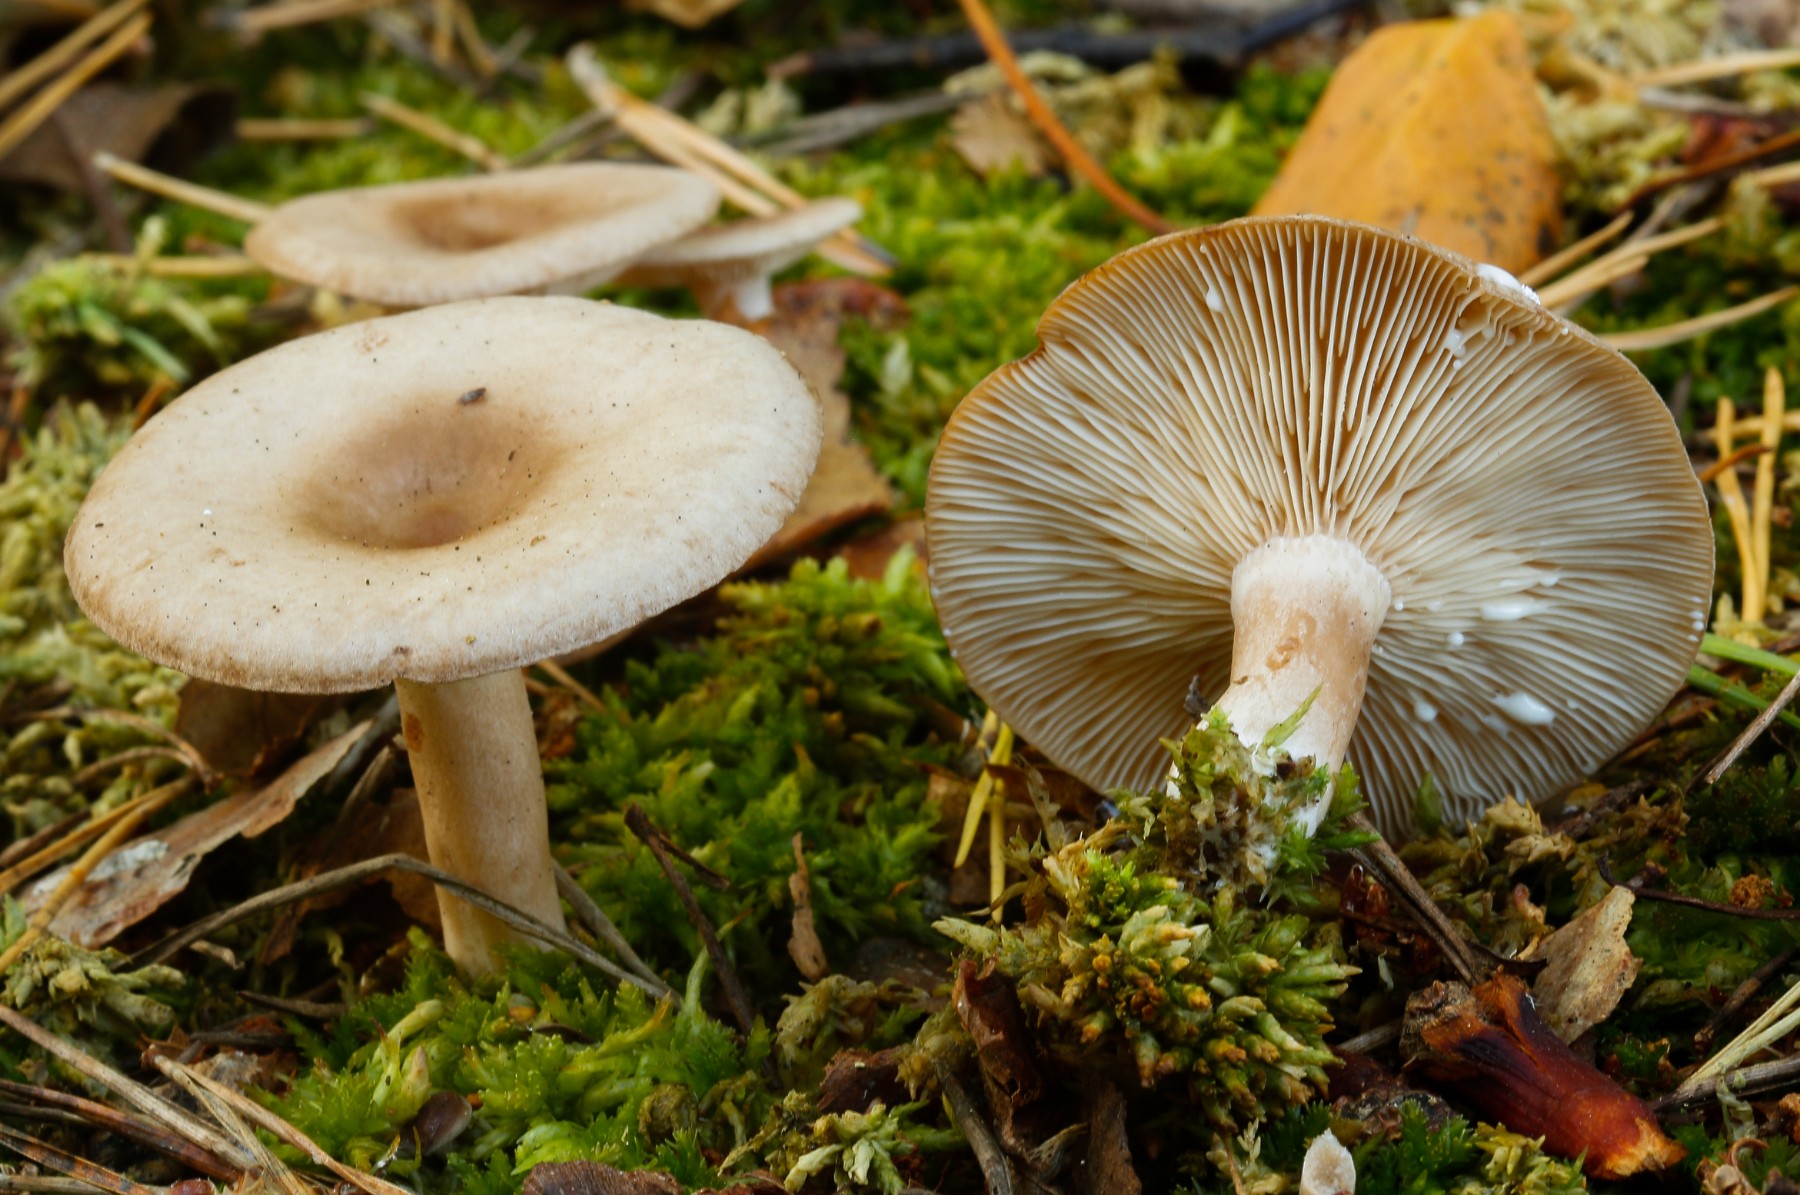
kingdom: Fungi
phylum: Basidiomycota
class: Agaricomycetes
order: Russulales
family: Russulaceae
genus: Lactarius
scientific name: Lactarius tabidus
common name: rynket mælkehat
